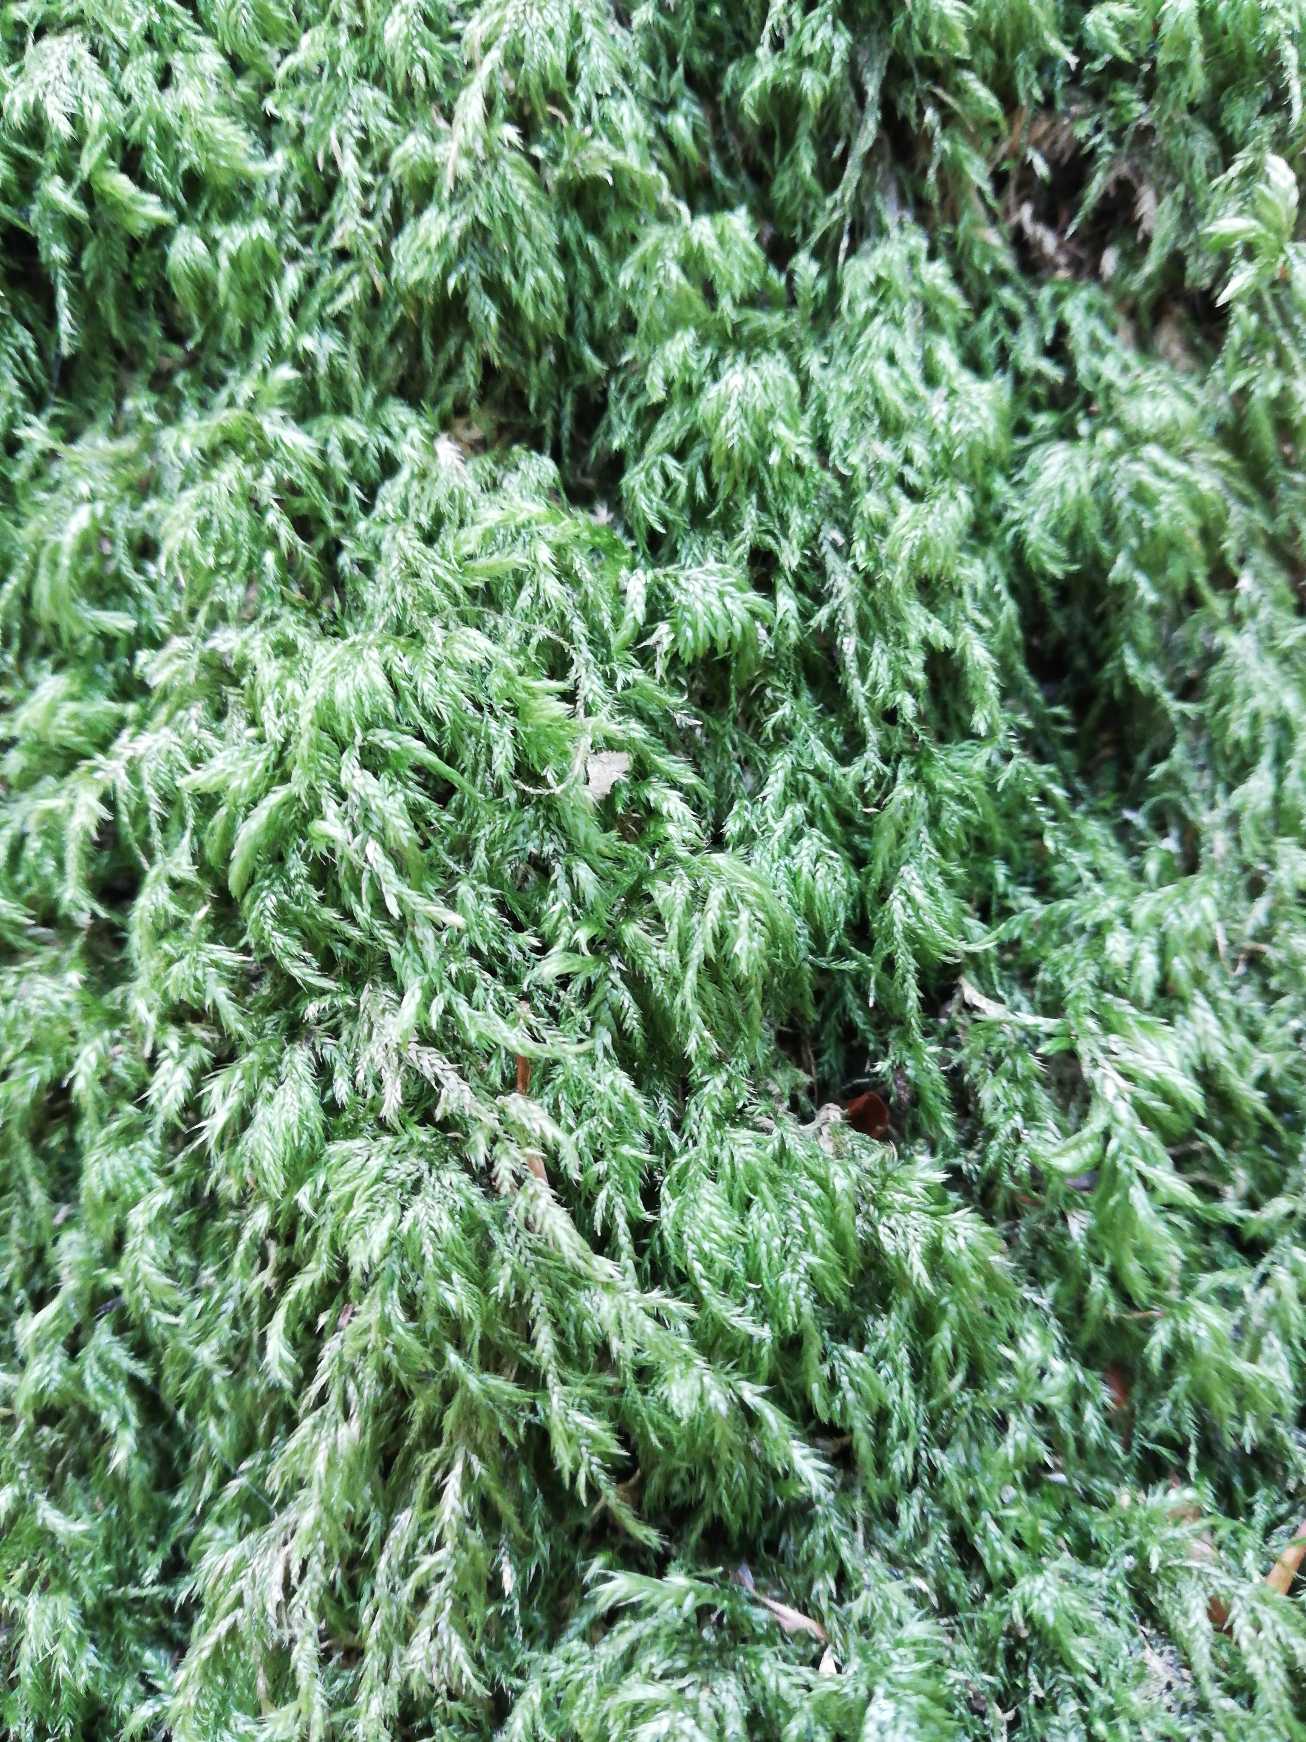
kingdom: Plantae
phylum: Bryophyta
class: Bryopsida
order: Hypnales
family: Lembophyllaceae
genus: Pseudisothecium
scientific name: Pseudisothecium myosuroides
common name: Slank stammemos
